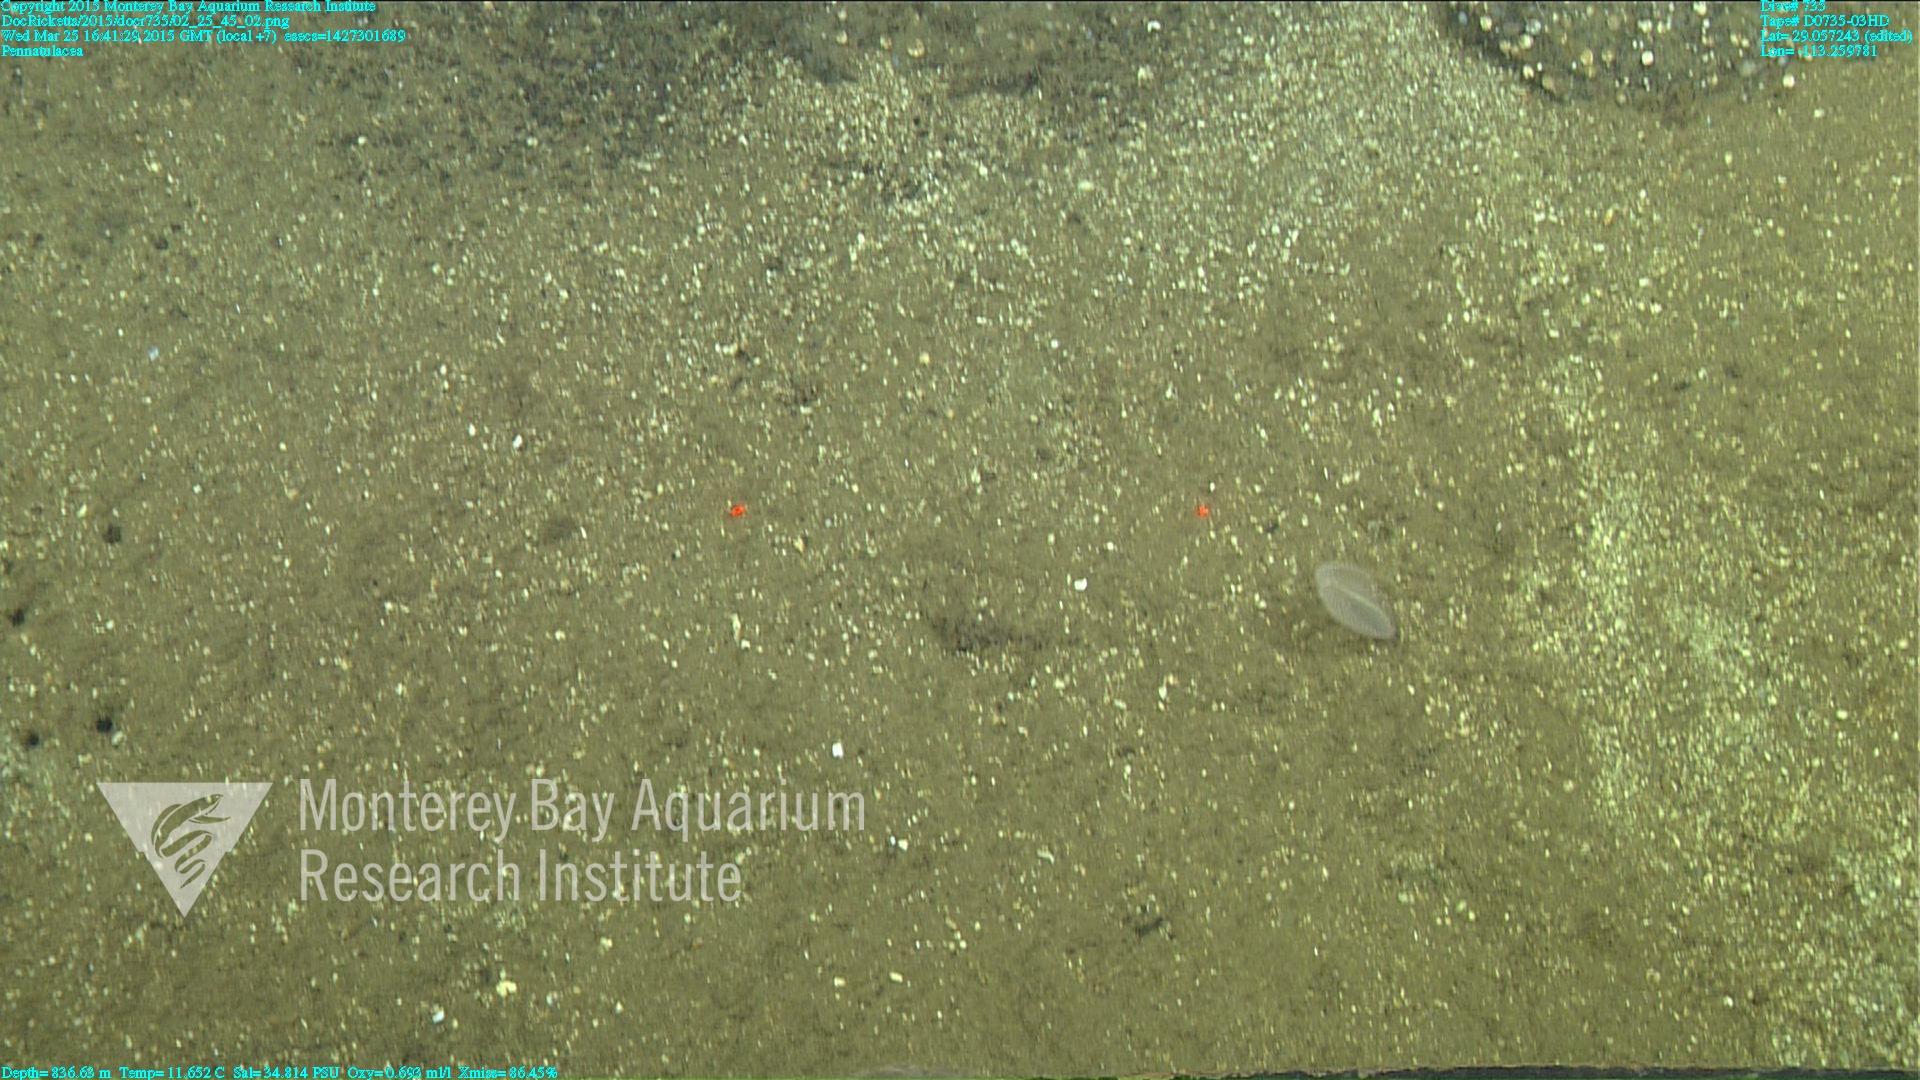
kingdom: Animalia
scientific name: Animalia
